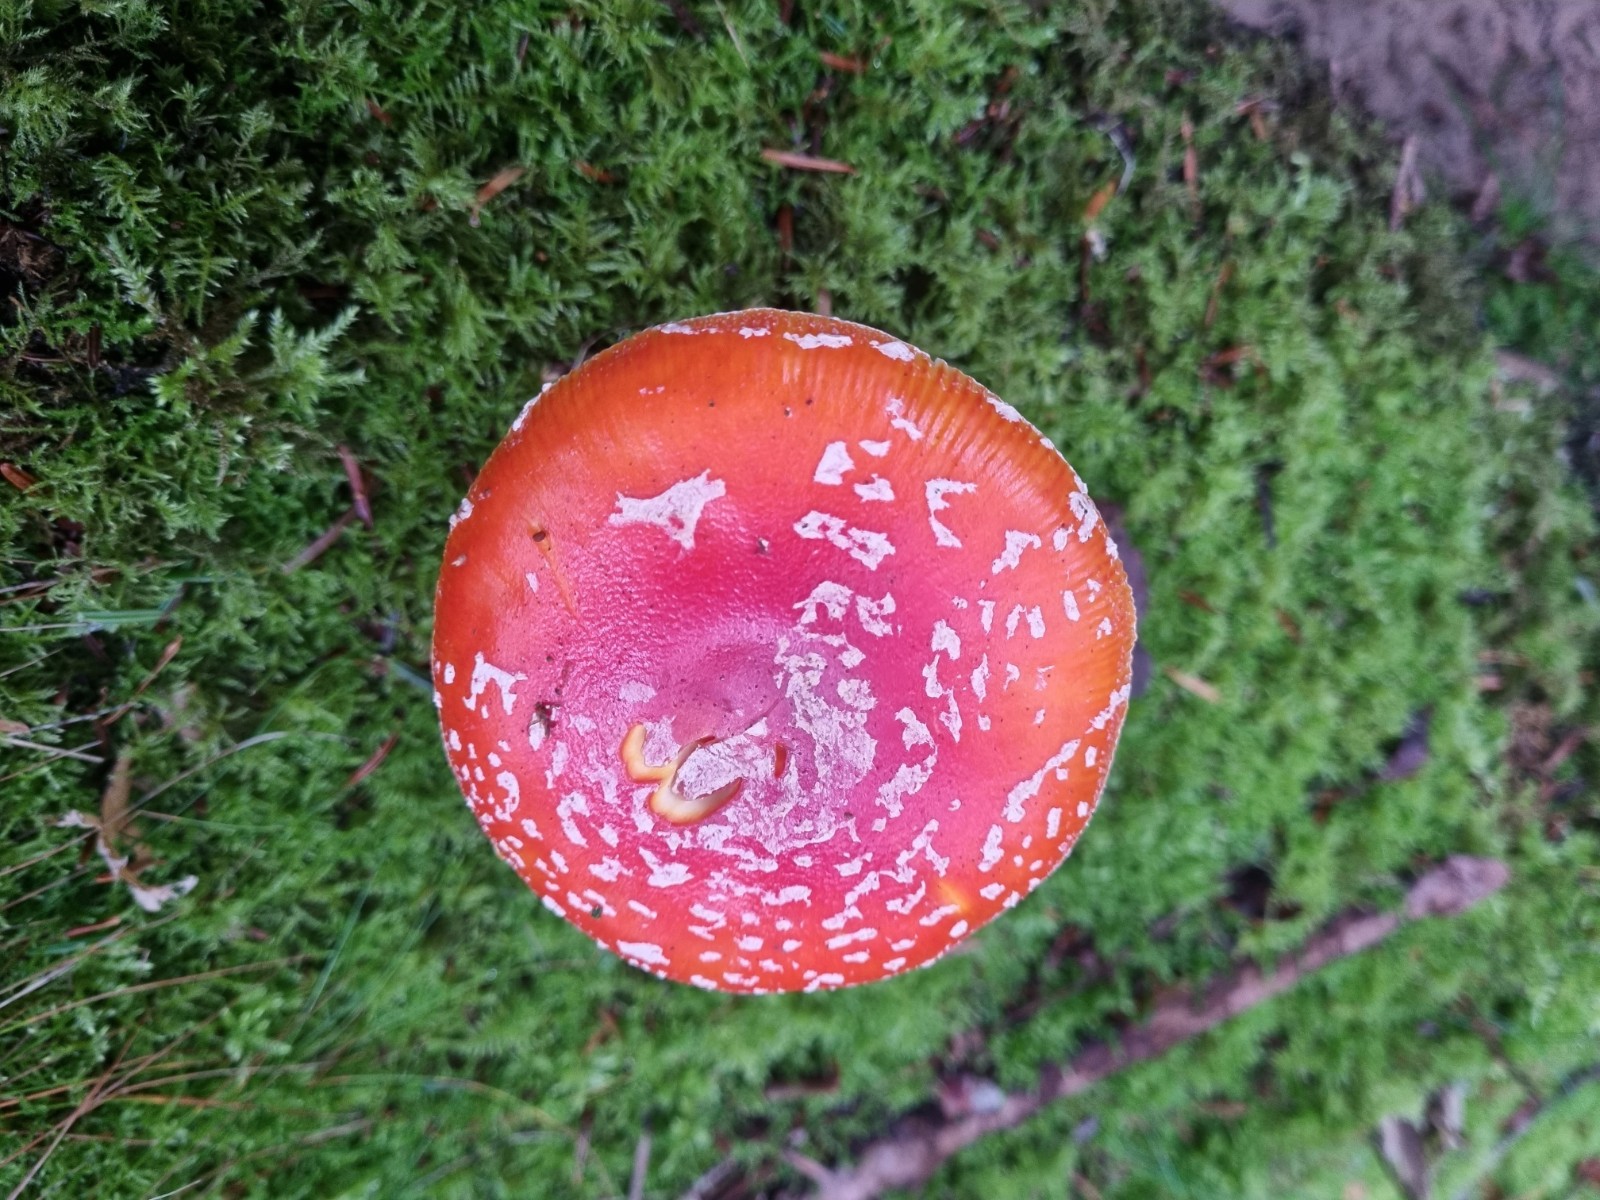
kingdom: Fungi
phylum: Basidiomycota
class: Agaricomycetes
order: Agaricales
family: Amanitaceae
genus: Amanita
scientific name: Amanita muscaria
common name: rød fluesvamp
